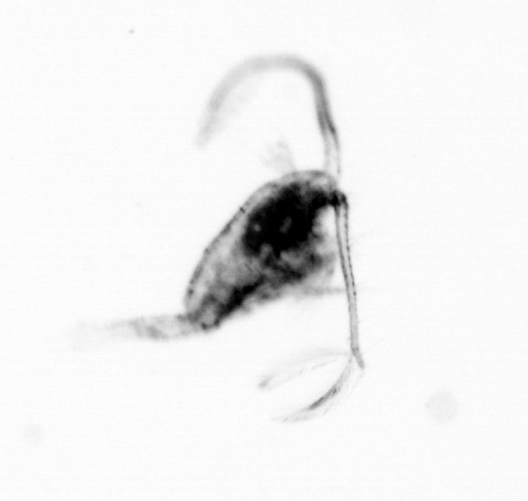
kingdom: Animalia
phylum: Arthropoda
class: Copepoda
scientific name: Copepoda
